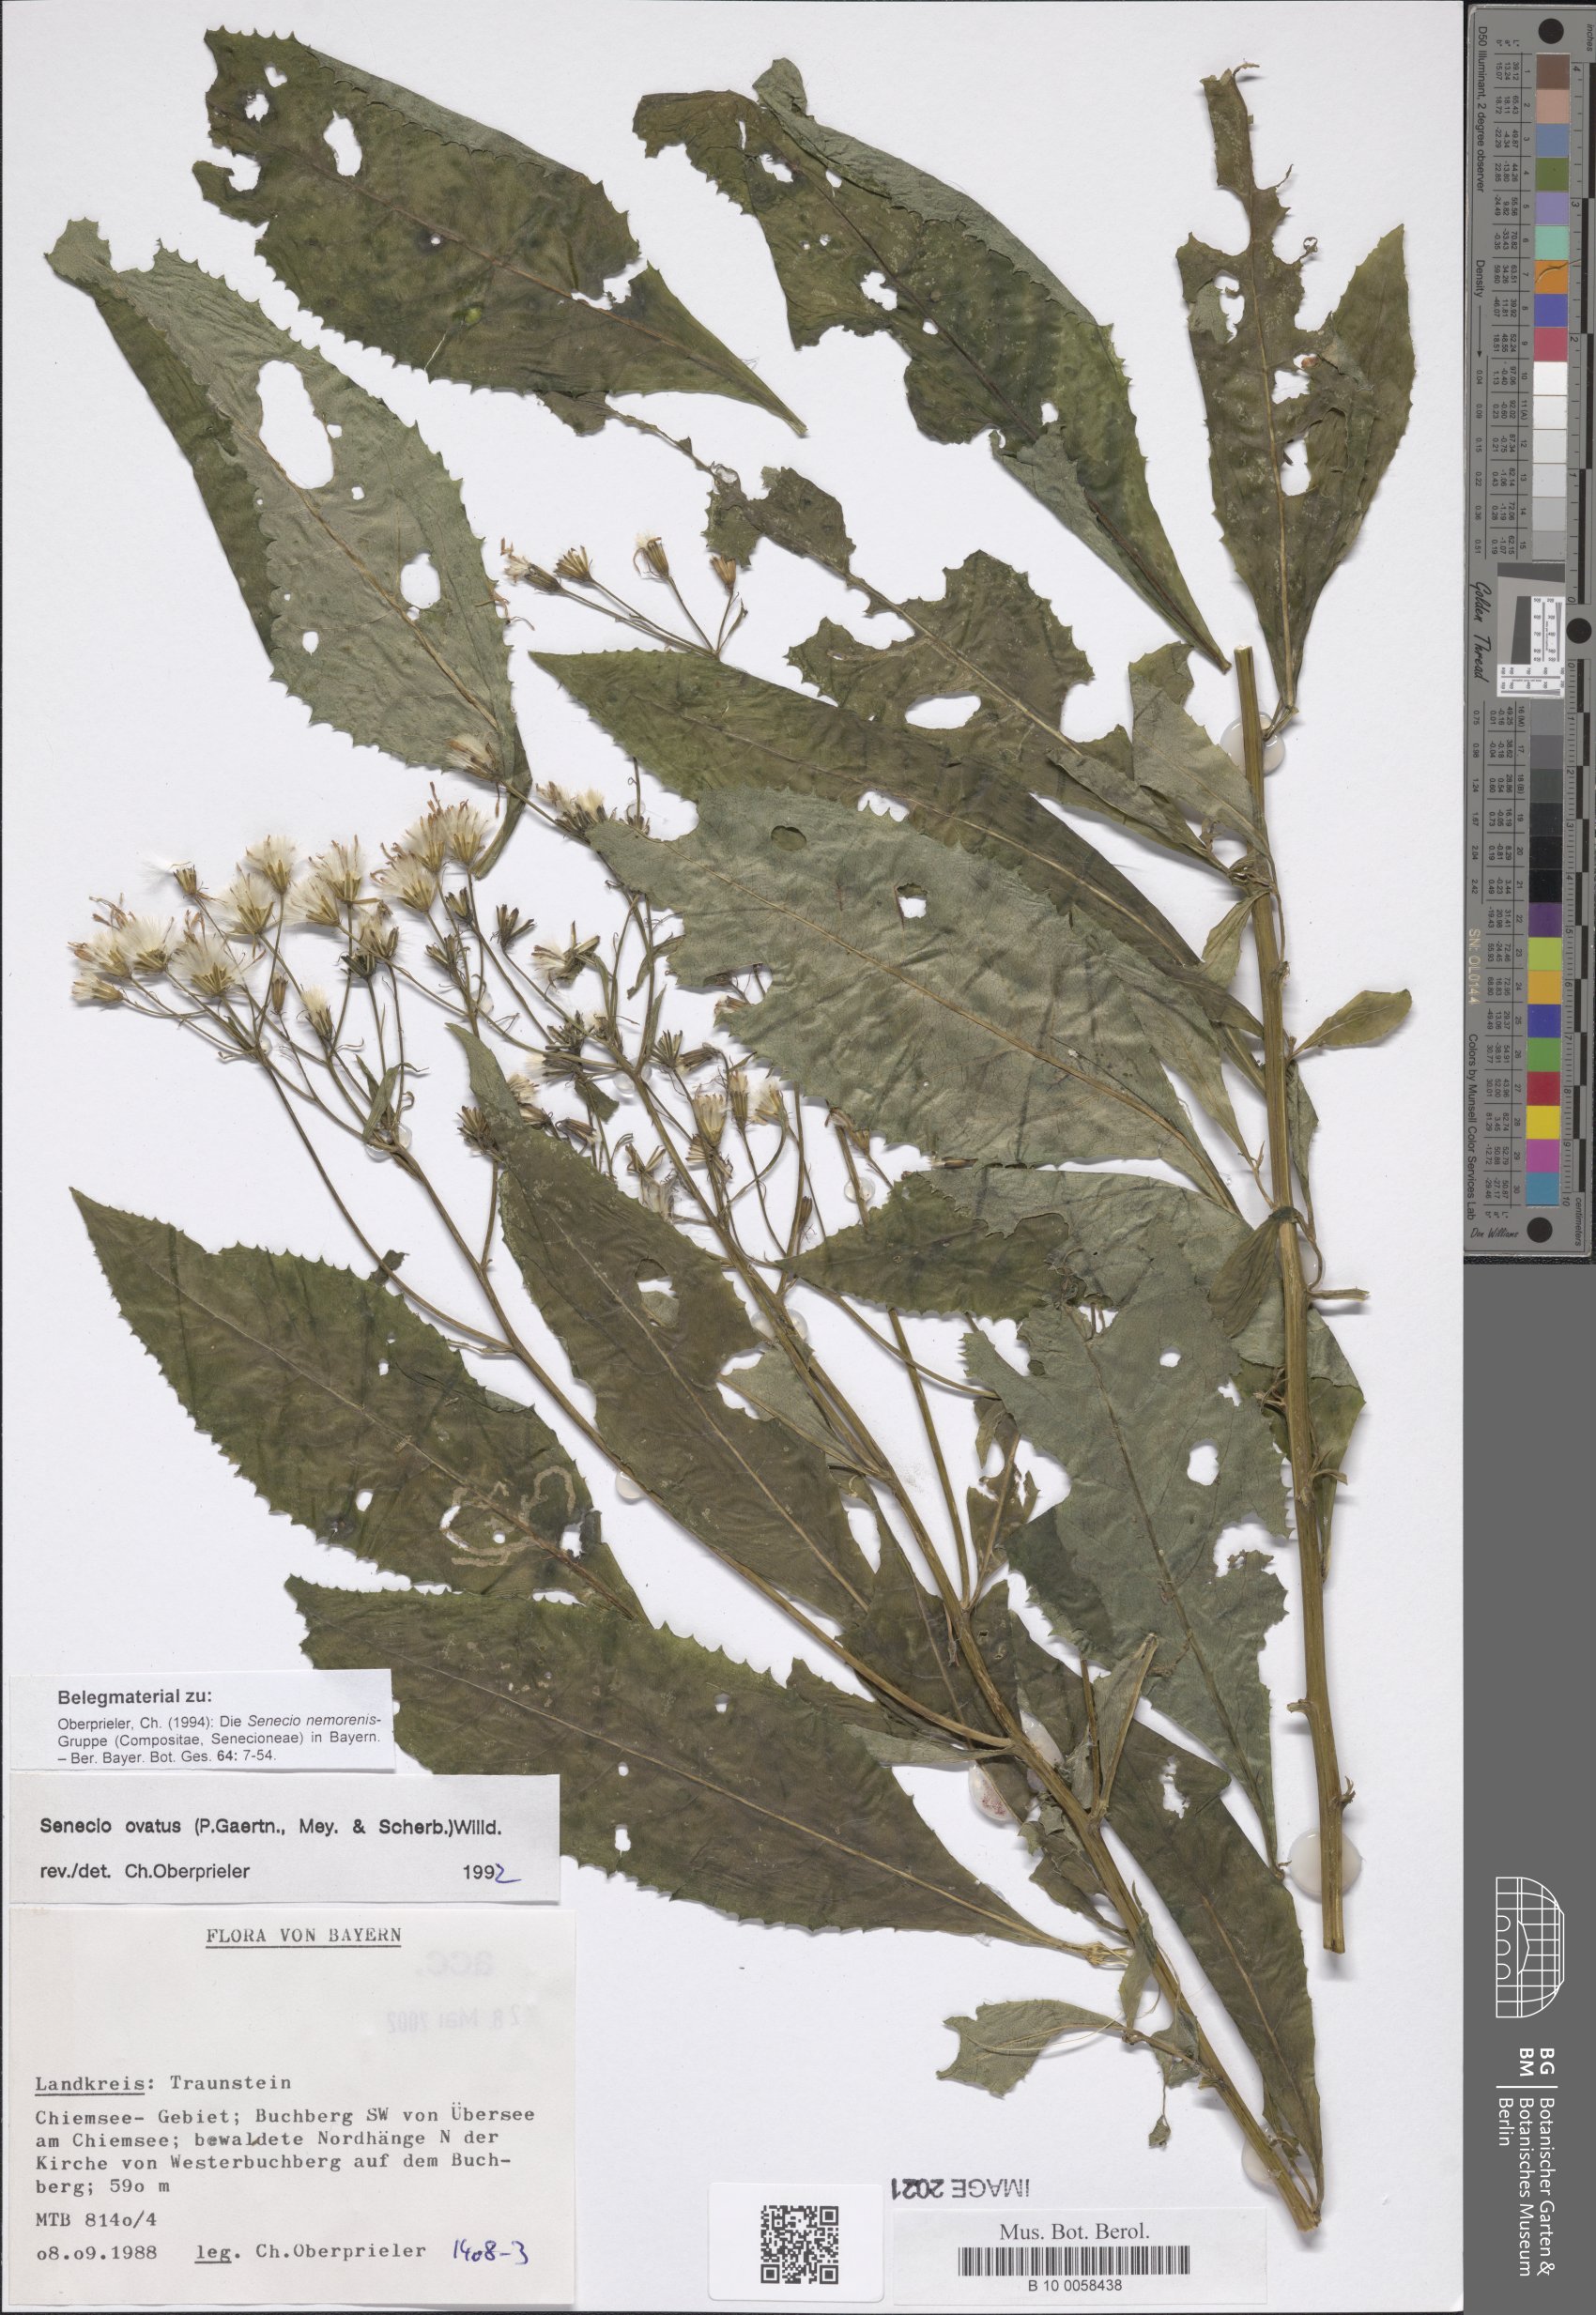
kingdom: Plantae
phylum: Tracheophyta
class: Magnoliopsida
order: Asterales
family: Asteraceae
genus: Senecio
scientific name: Senecio ovatus
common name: Wood ragwort
